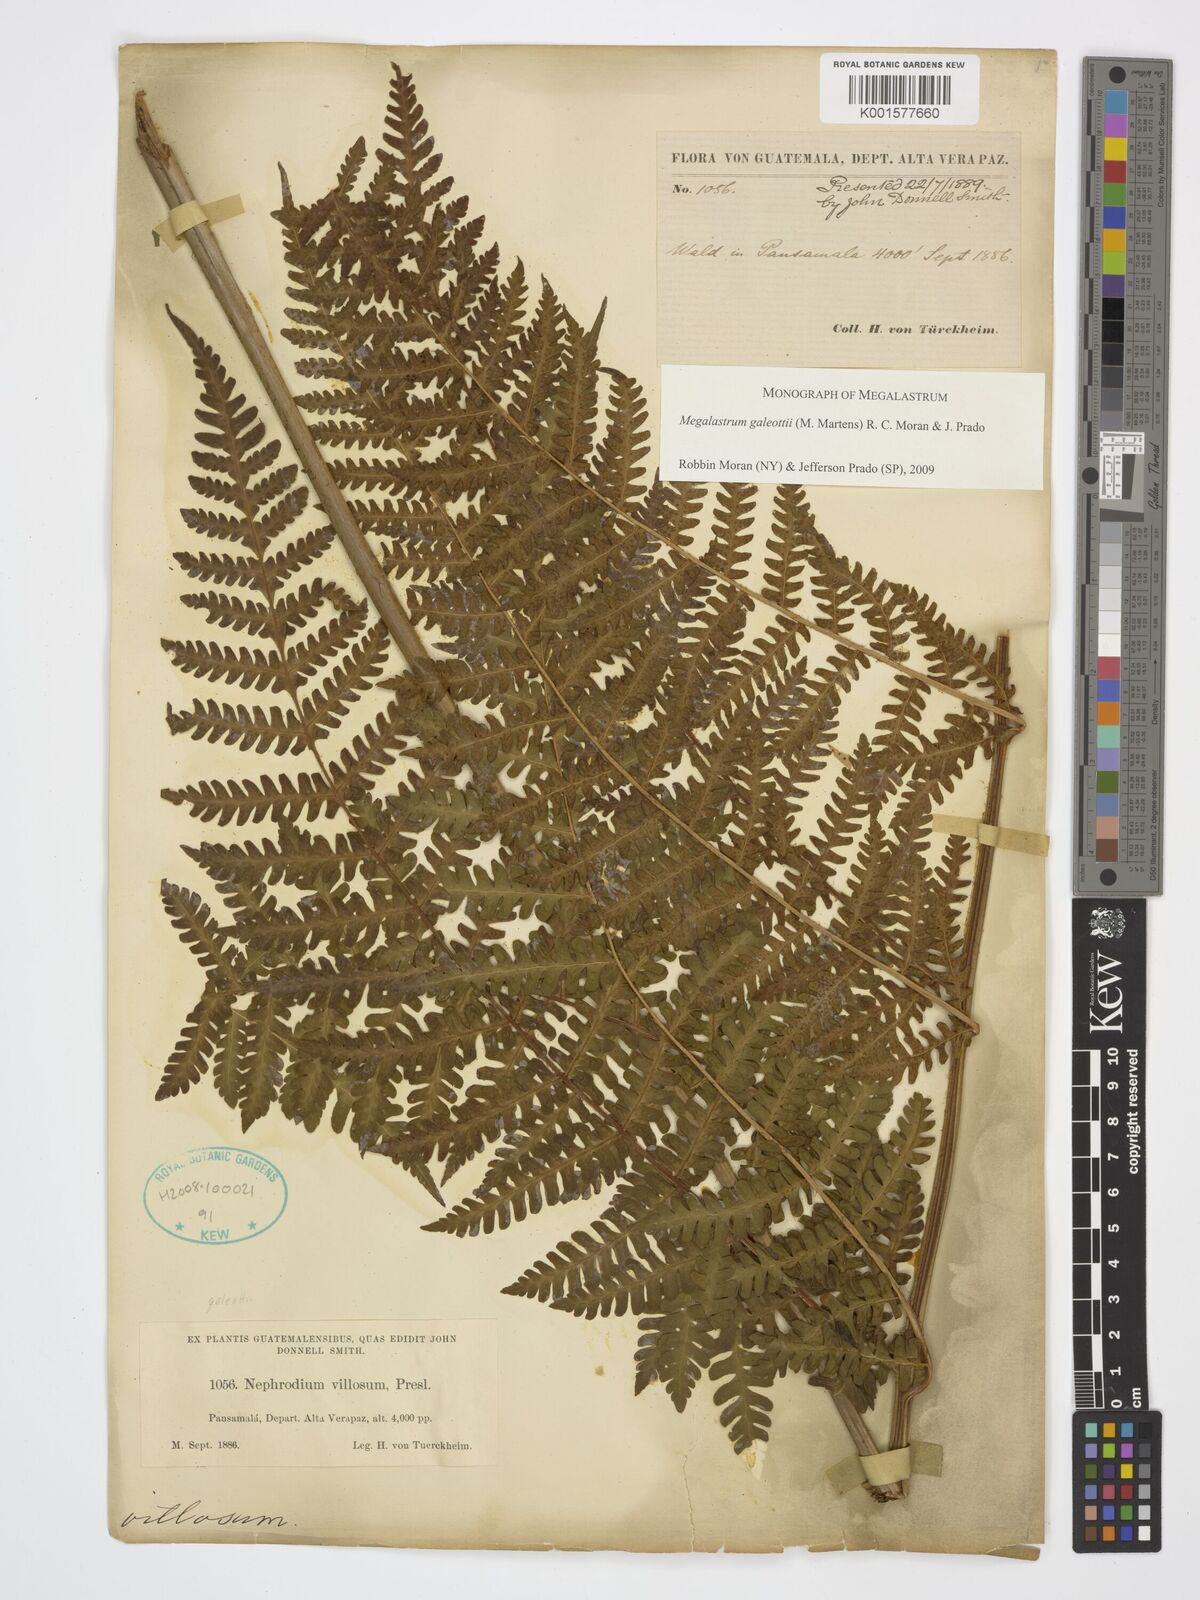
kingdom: Plantae
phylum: Tracheophyta
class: Polypodiopsida
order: Polypodiales
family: Dryopteridaceae
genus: Megalastrum
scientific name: Megalastrum galeottii
